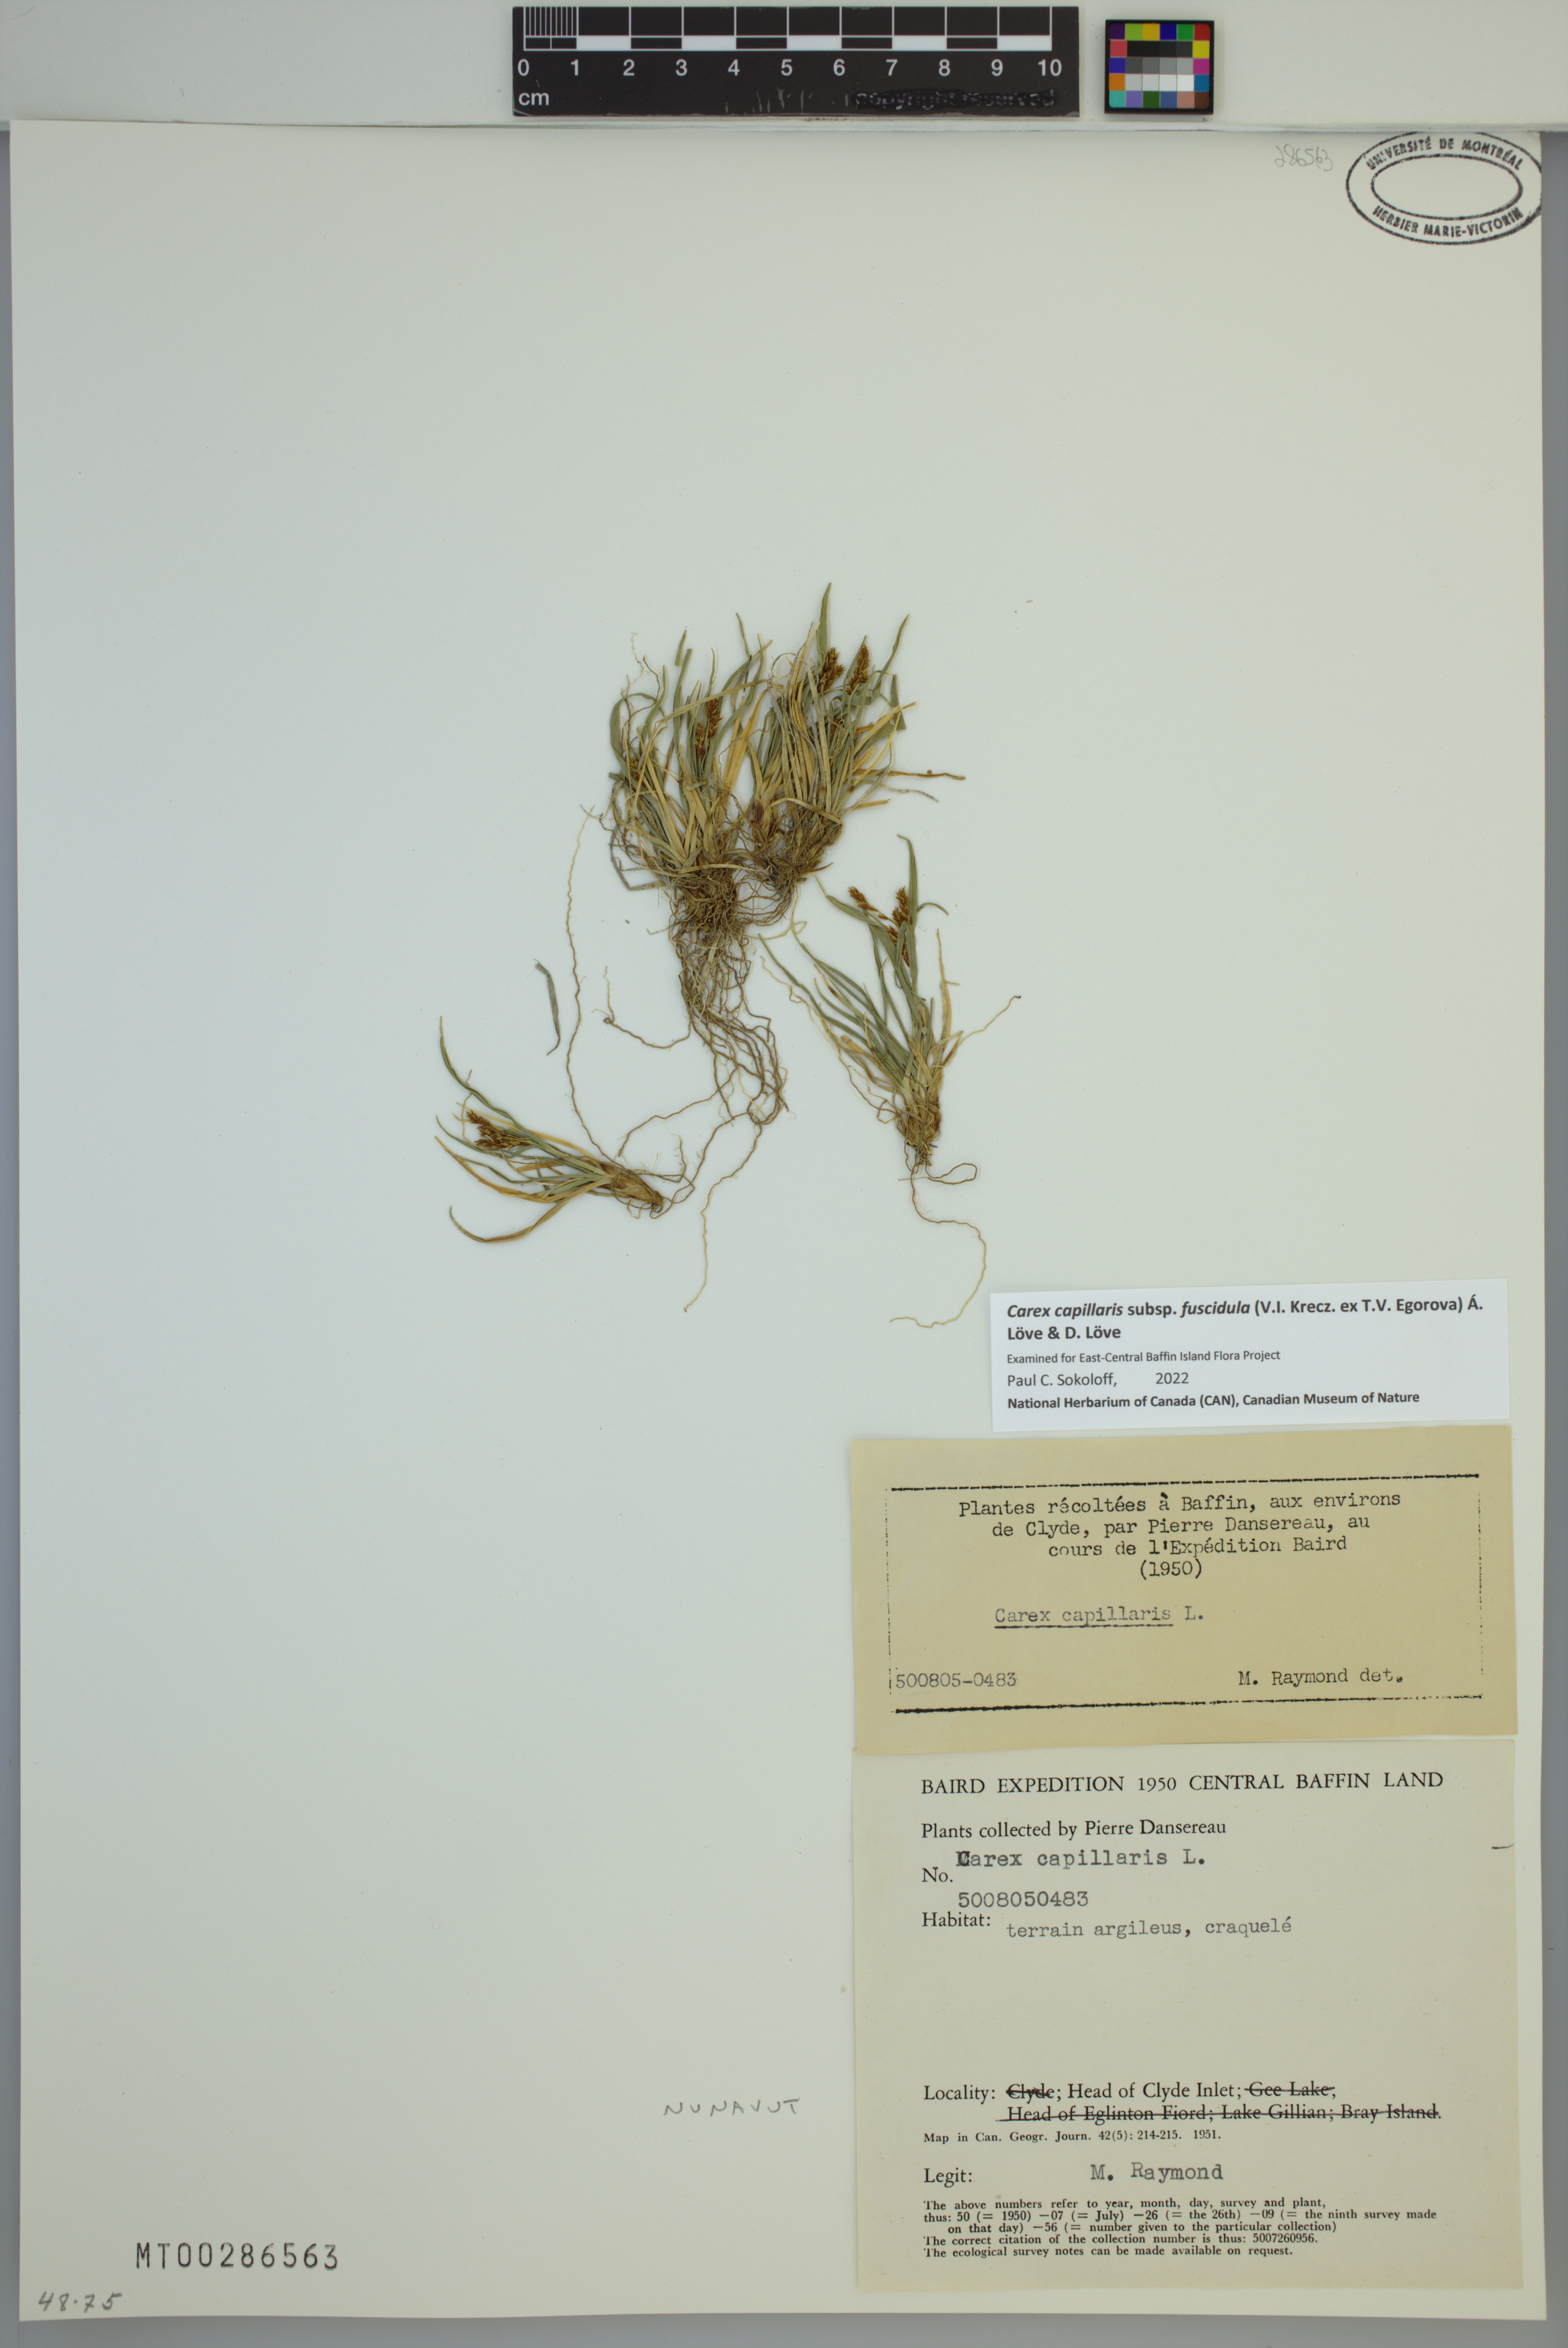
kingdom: Plantae
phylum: Tracheophyta
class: Liliopsida
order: Poales
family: Cyperaceae
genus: Carex
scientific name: Carex capillaris
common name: Hair sedge
